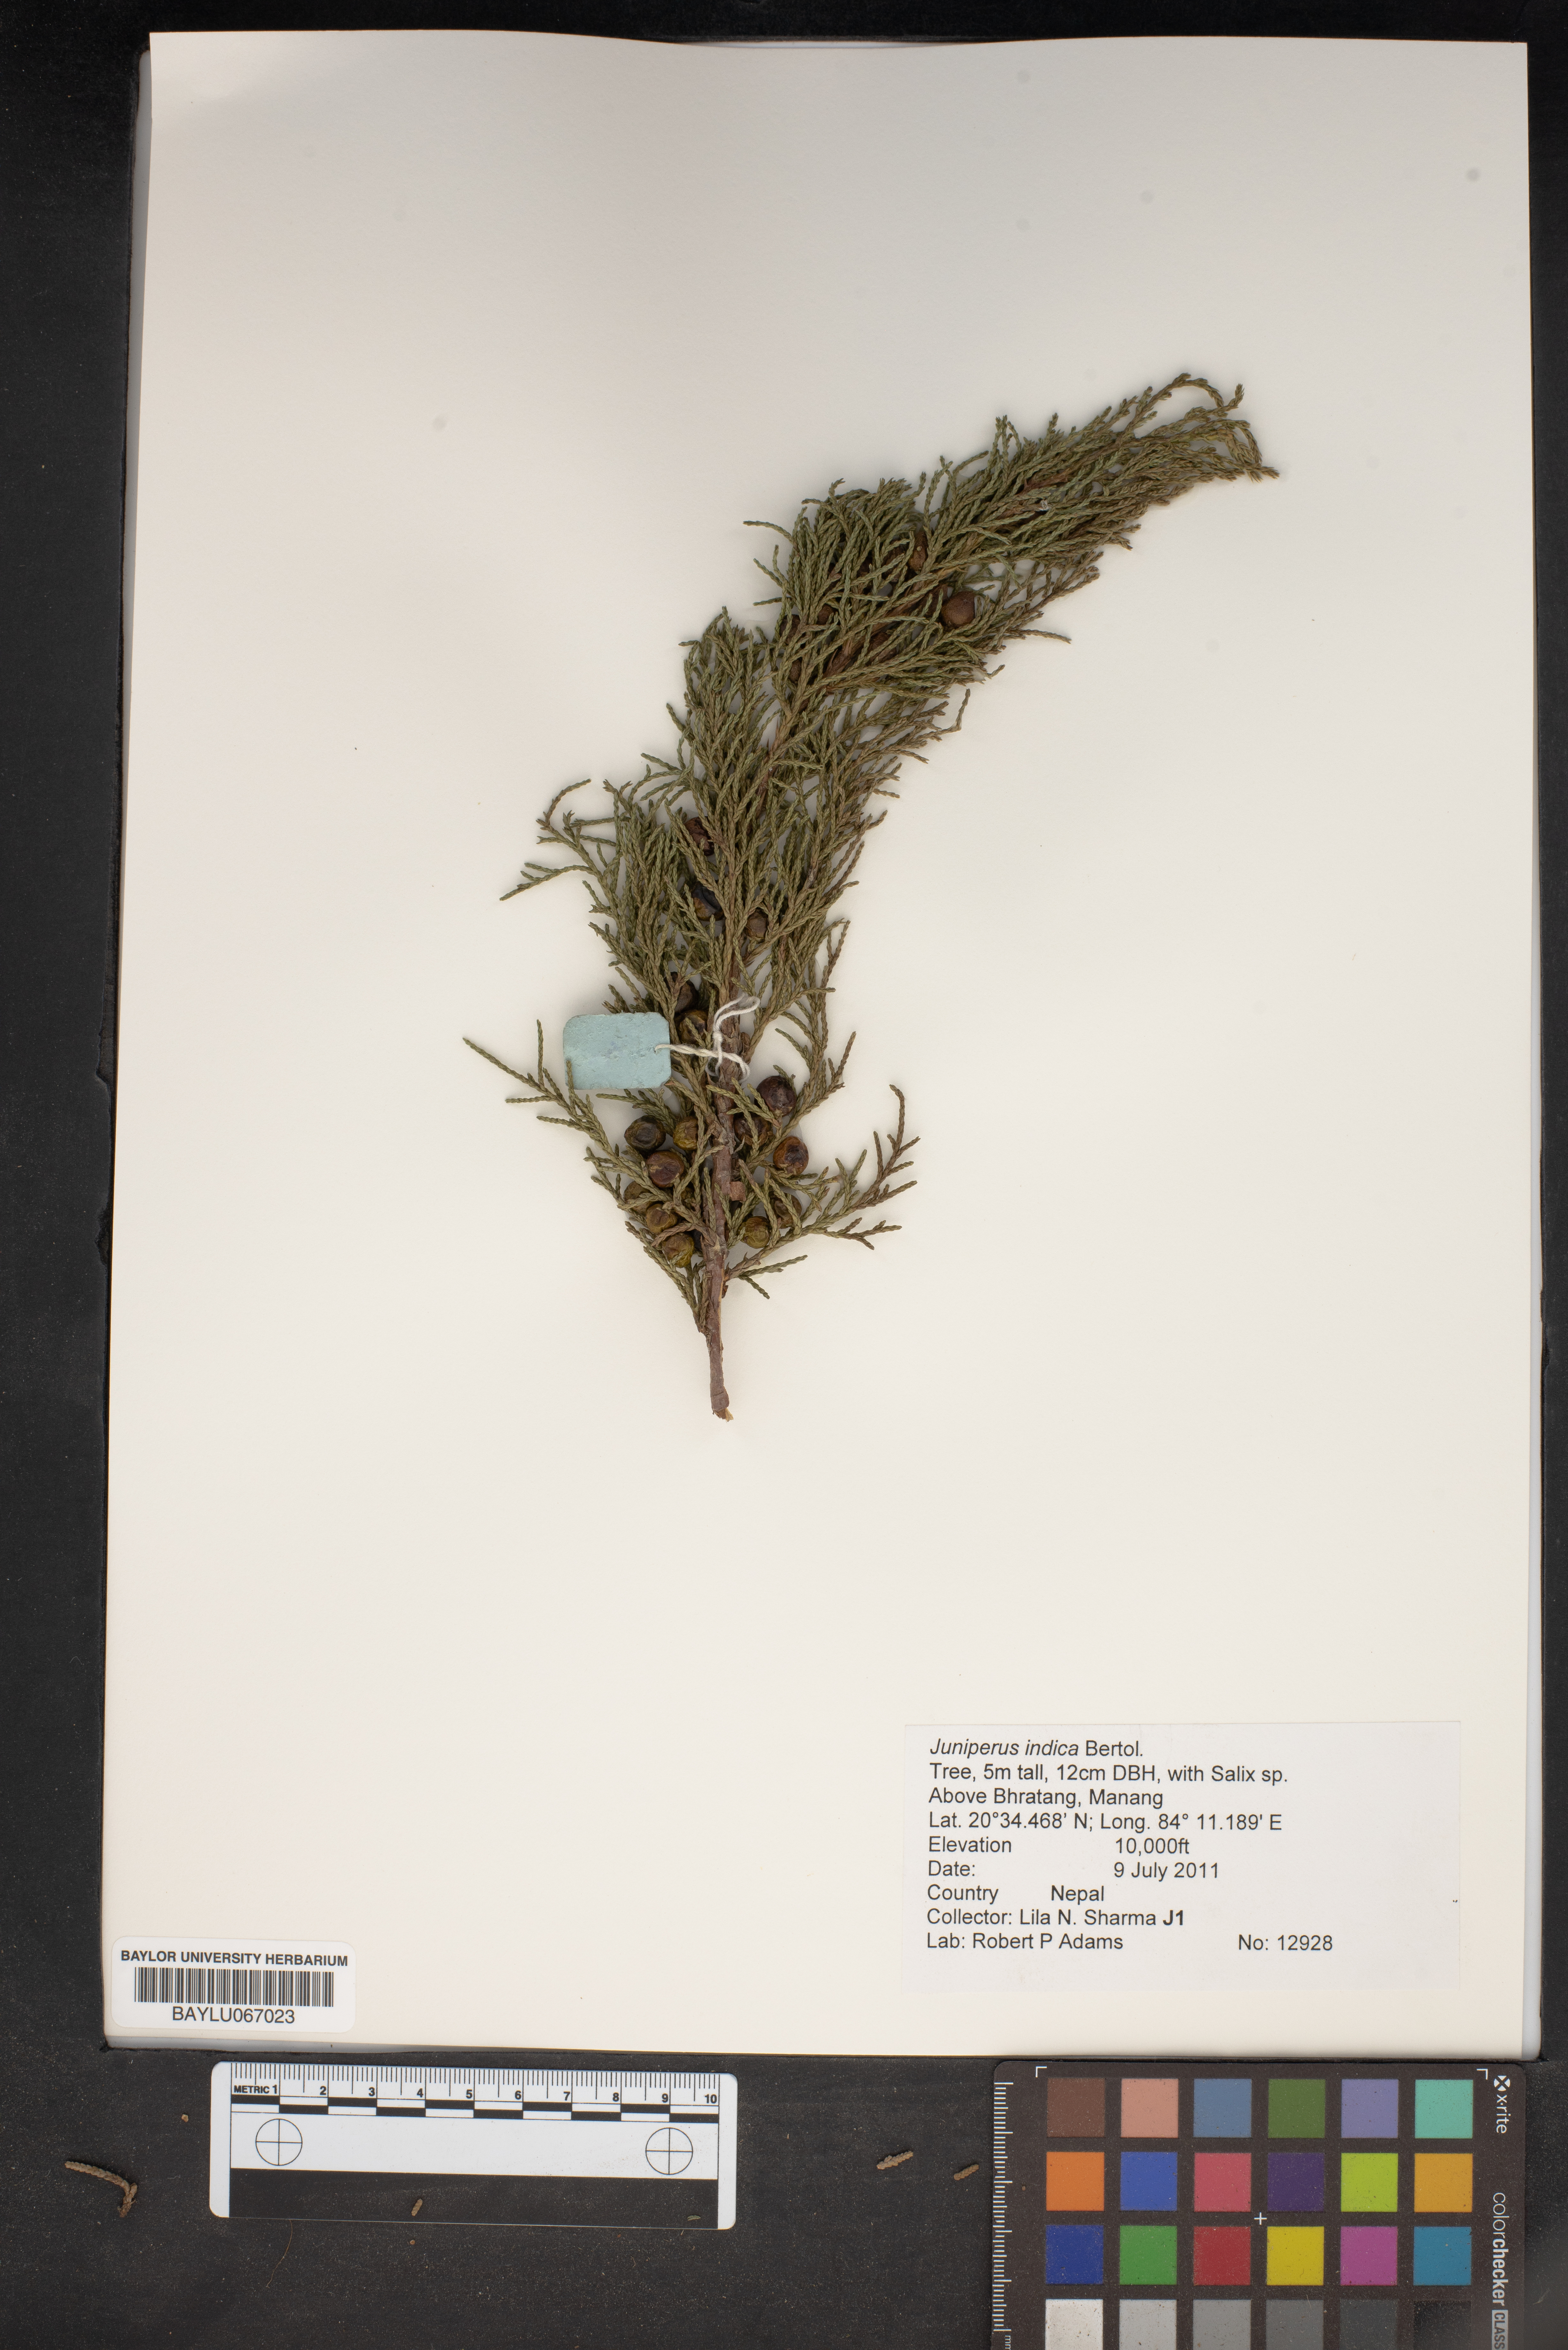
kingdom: Plantae
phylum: Tracheophyta
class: Pinopsida
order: Pinales
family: Cupressaceae
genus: Juniperus
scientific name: Juniperus indica
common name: Black juniper
